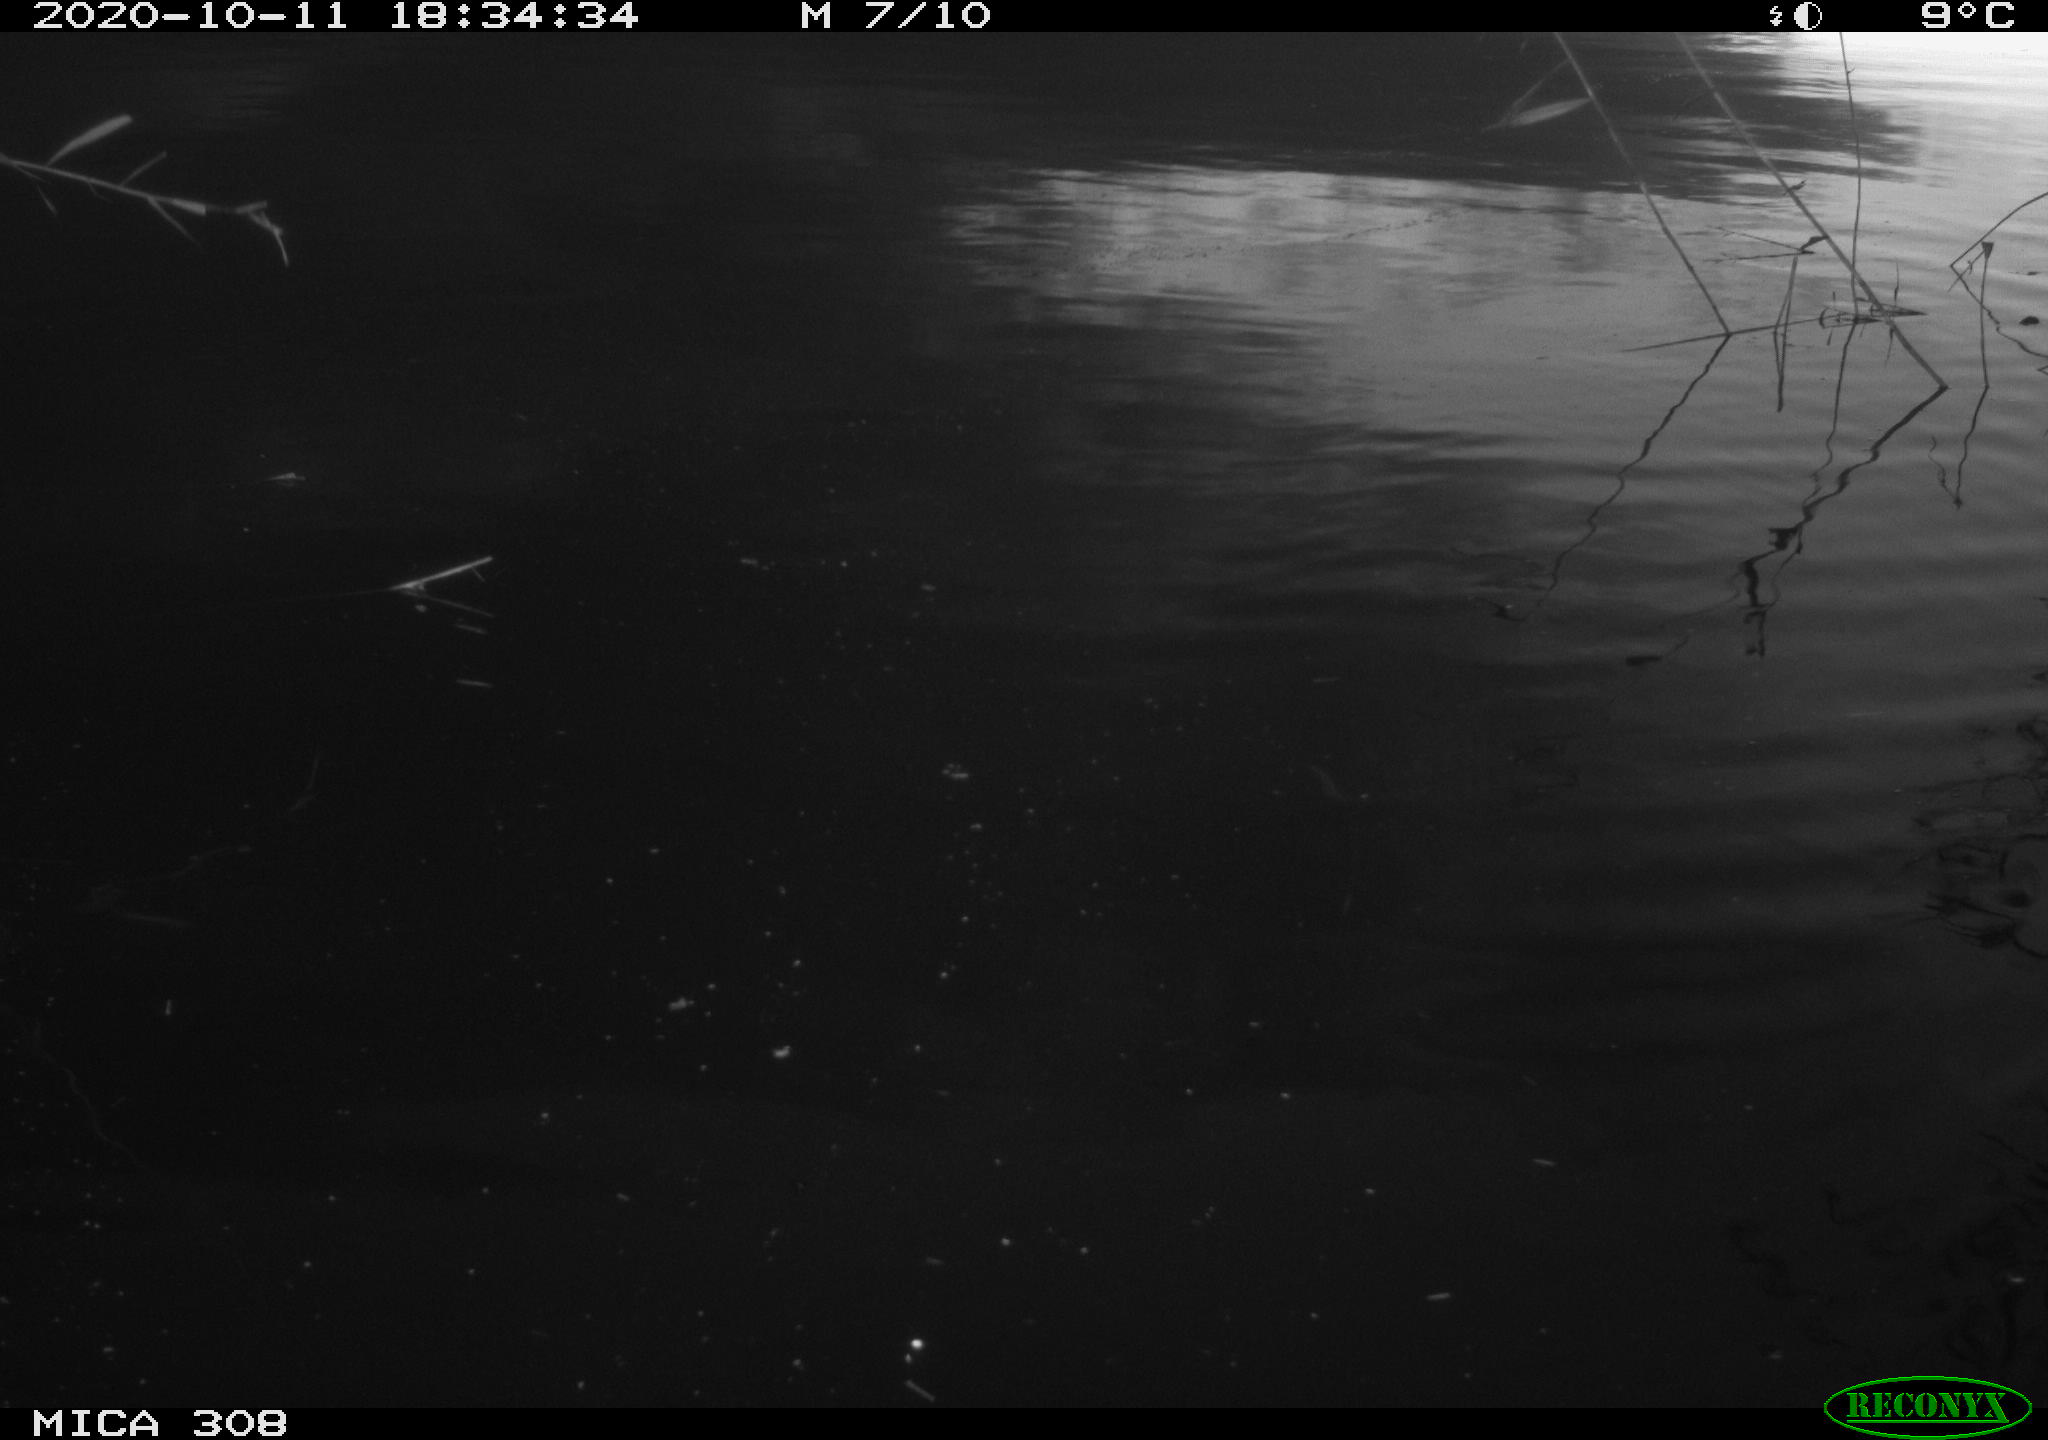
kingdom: Animalia
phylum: Chordata
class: Aves
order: Anseriformes
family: Anatidae
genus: Anas
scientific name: Anas platyrhynchos
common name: Mallard
